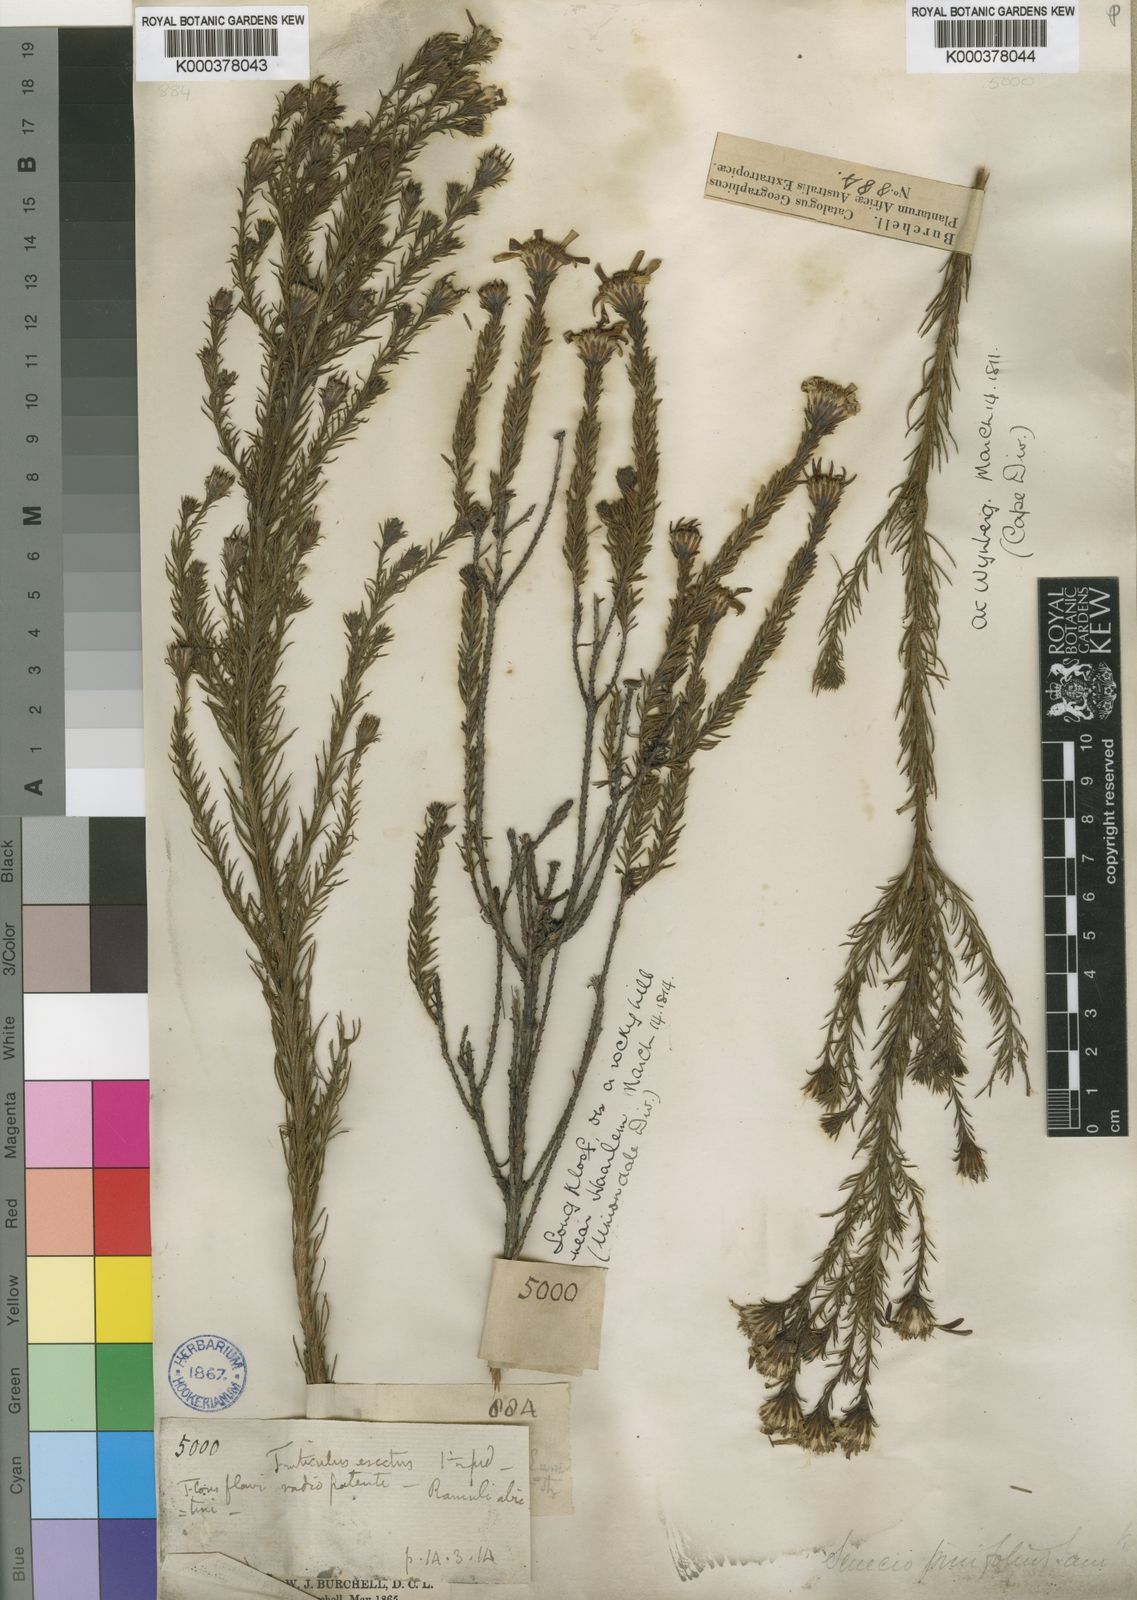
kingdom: Plantae
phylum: Tracheophyta
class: Magnoliopsida
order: Asterales
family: Asteraceae
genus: Senecio
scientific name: Senecio pinifolius
